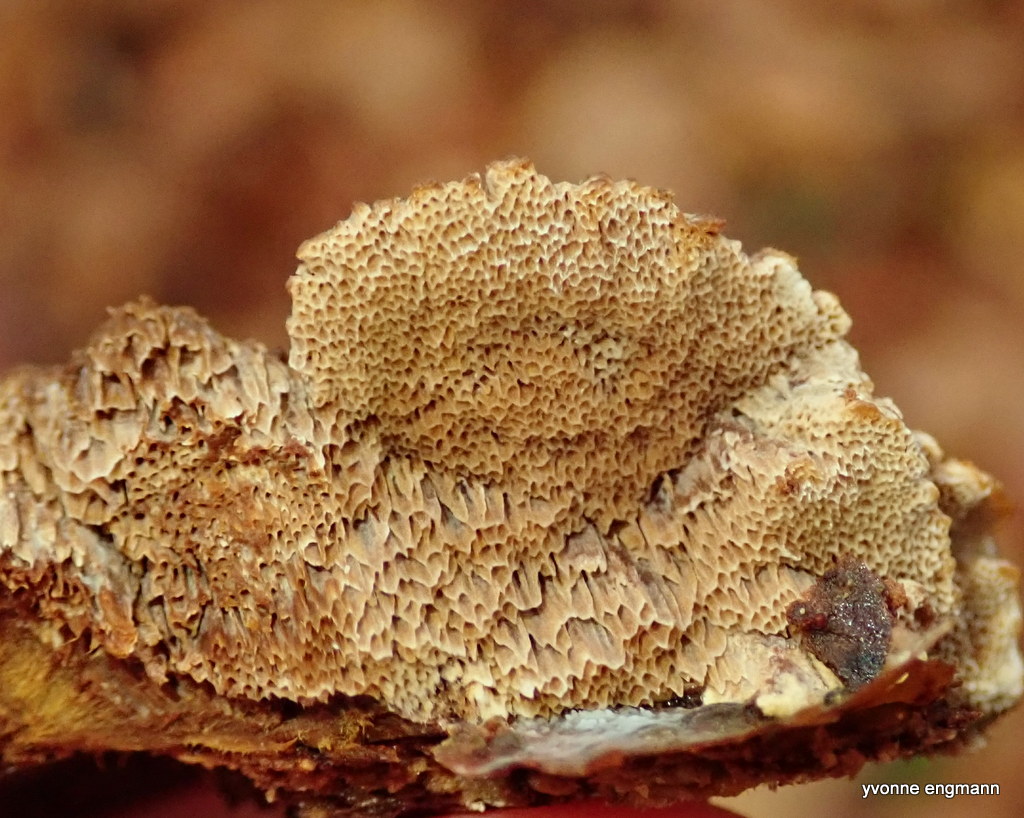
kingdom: Fungi
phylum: Basidiomycota
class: Agaricomycetes
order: Hymenochaetales
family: Hymenochaetaceae
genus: Mensularia
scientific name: Mensularia nodulosa
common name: bøge-spejlporesvamp
